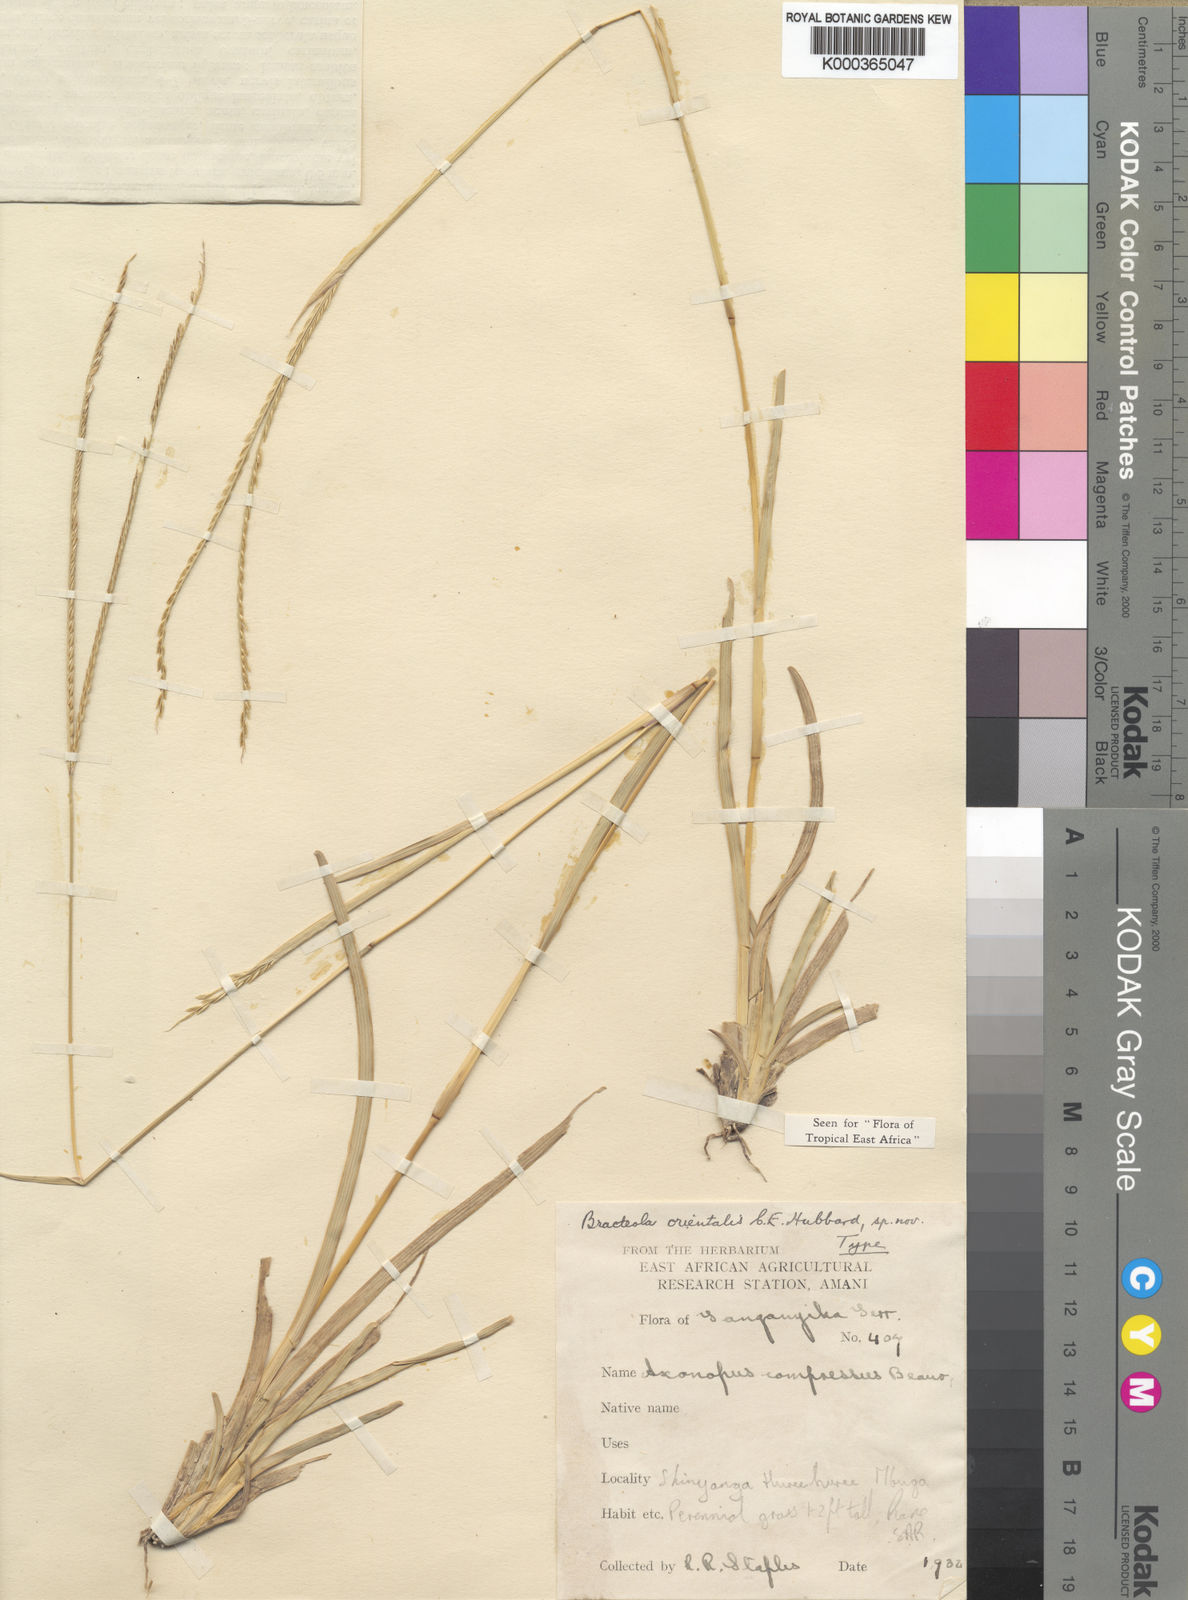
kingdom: Plantae
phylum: Tracheophyta
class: Liliopsida
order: Poales
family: Poaceae
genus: Chrysochloa
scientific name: Chrysochloa orientalis
